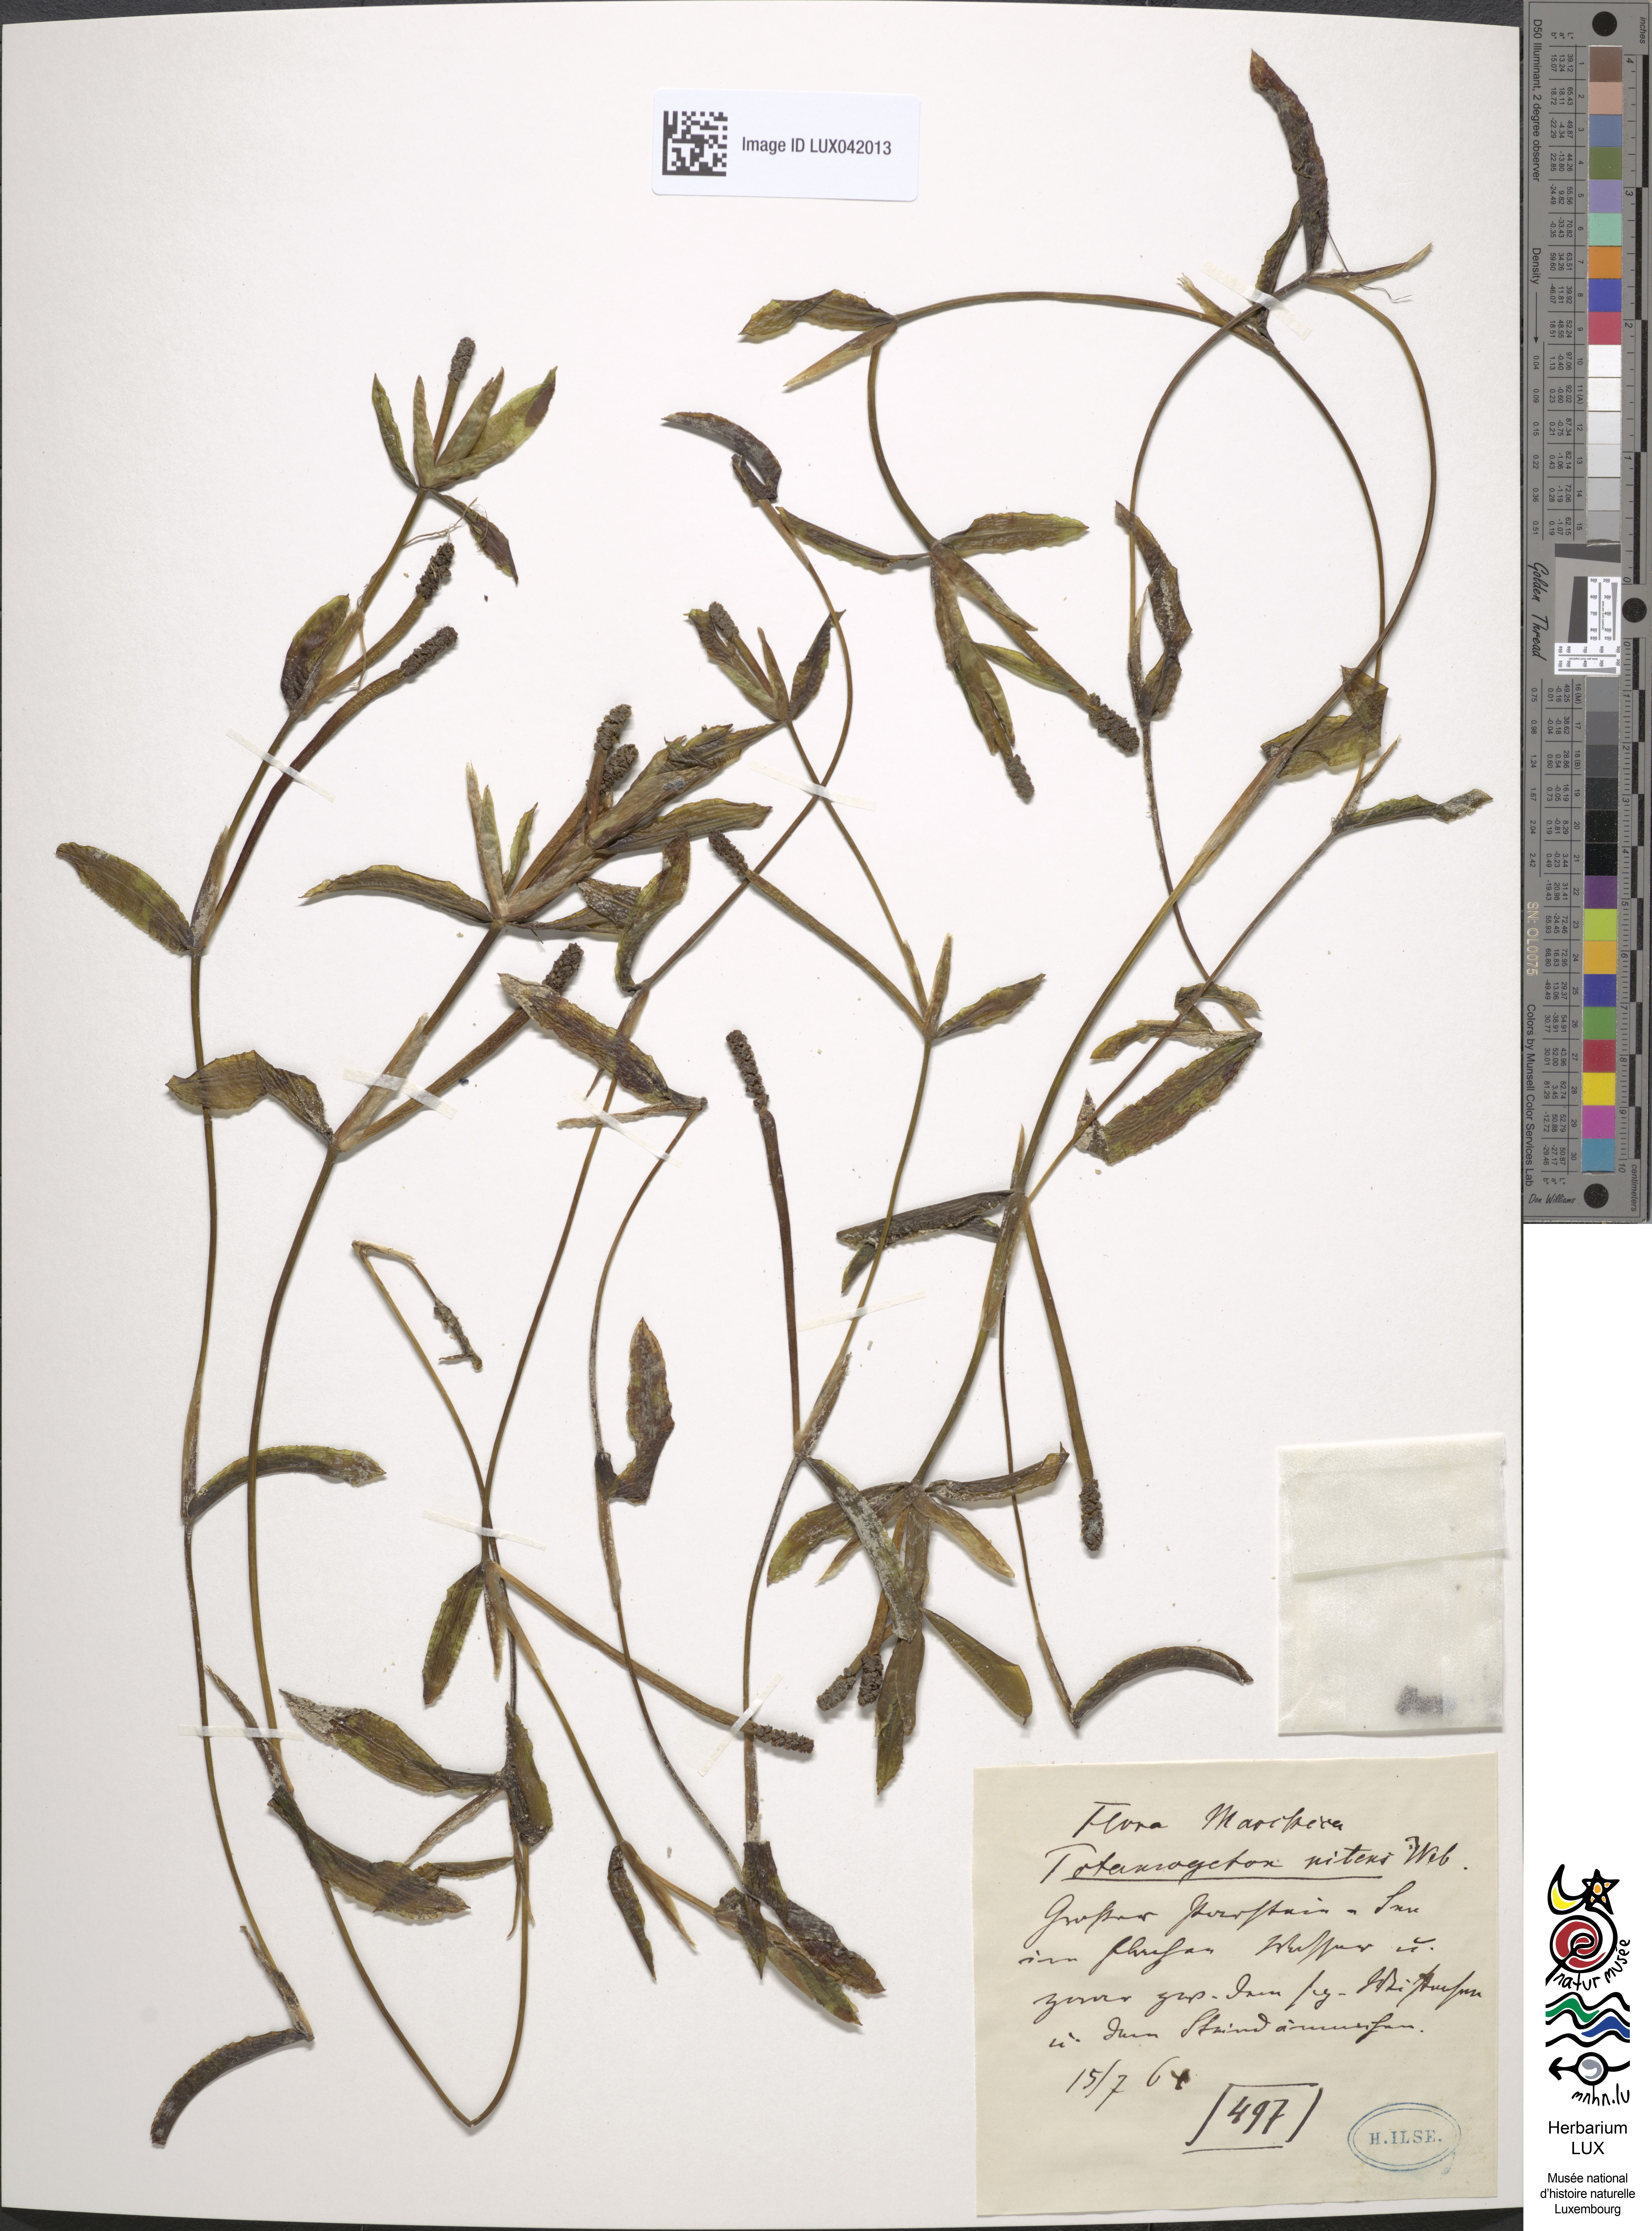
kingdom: Plantae
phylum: Tracheophyta
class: Liliopsida
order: Alismatales
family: Potamogetonaceae
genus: Potamogeton
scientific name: Potamogeton nitens
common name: Pondweed
